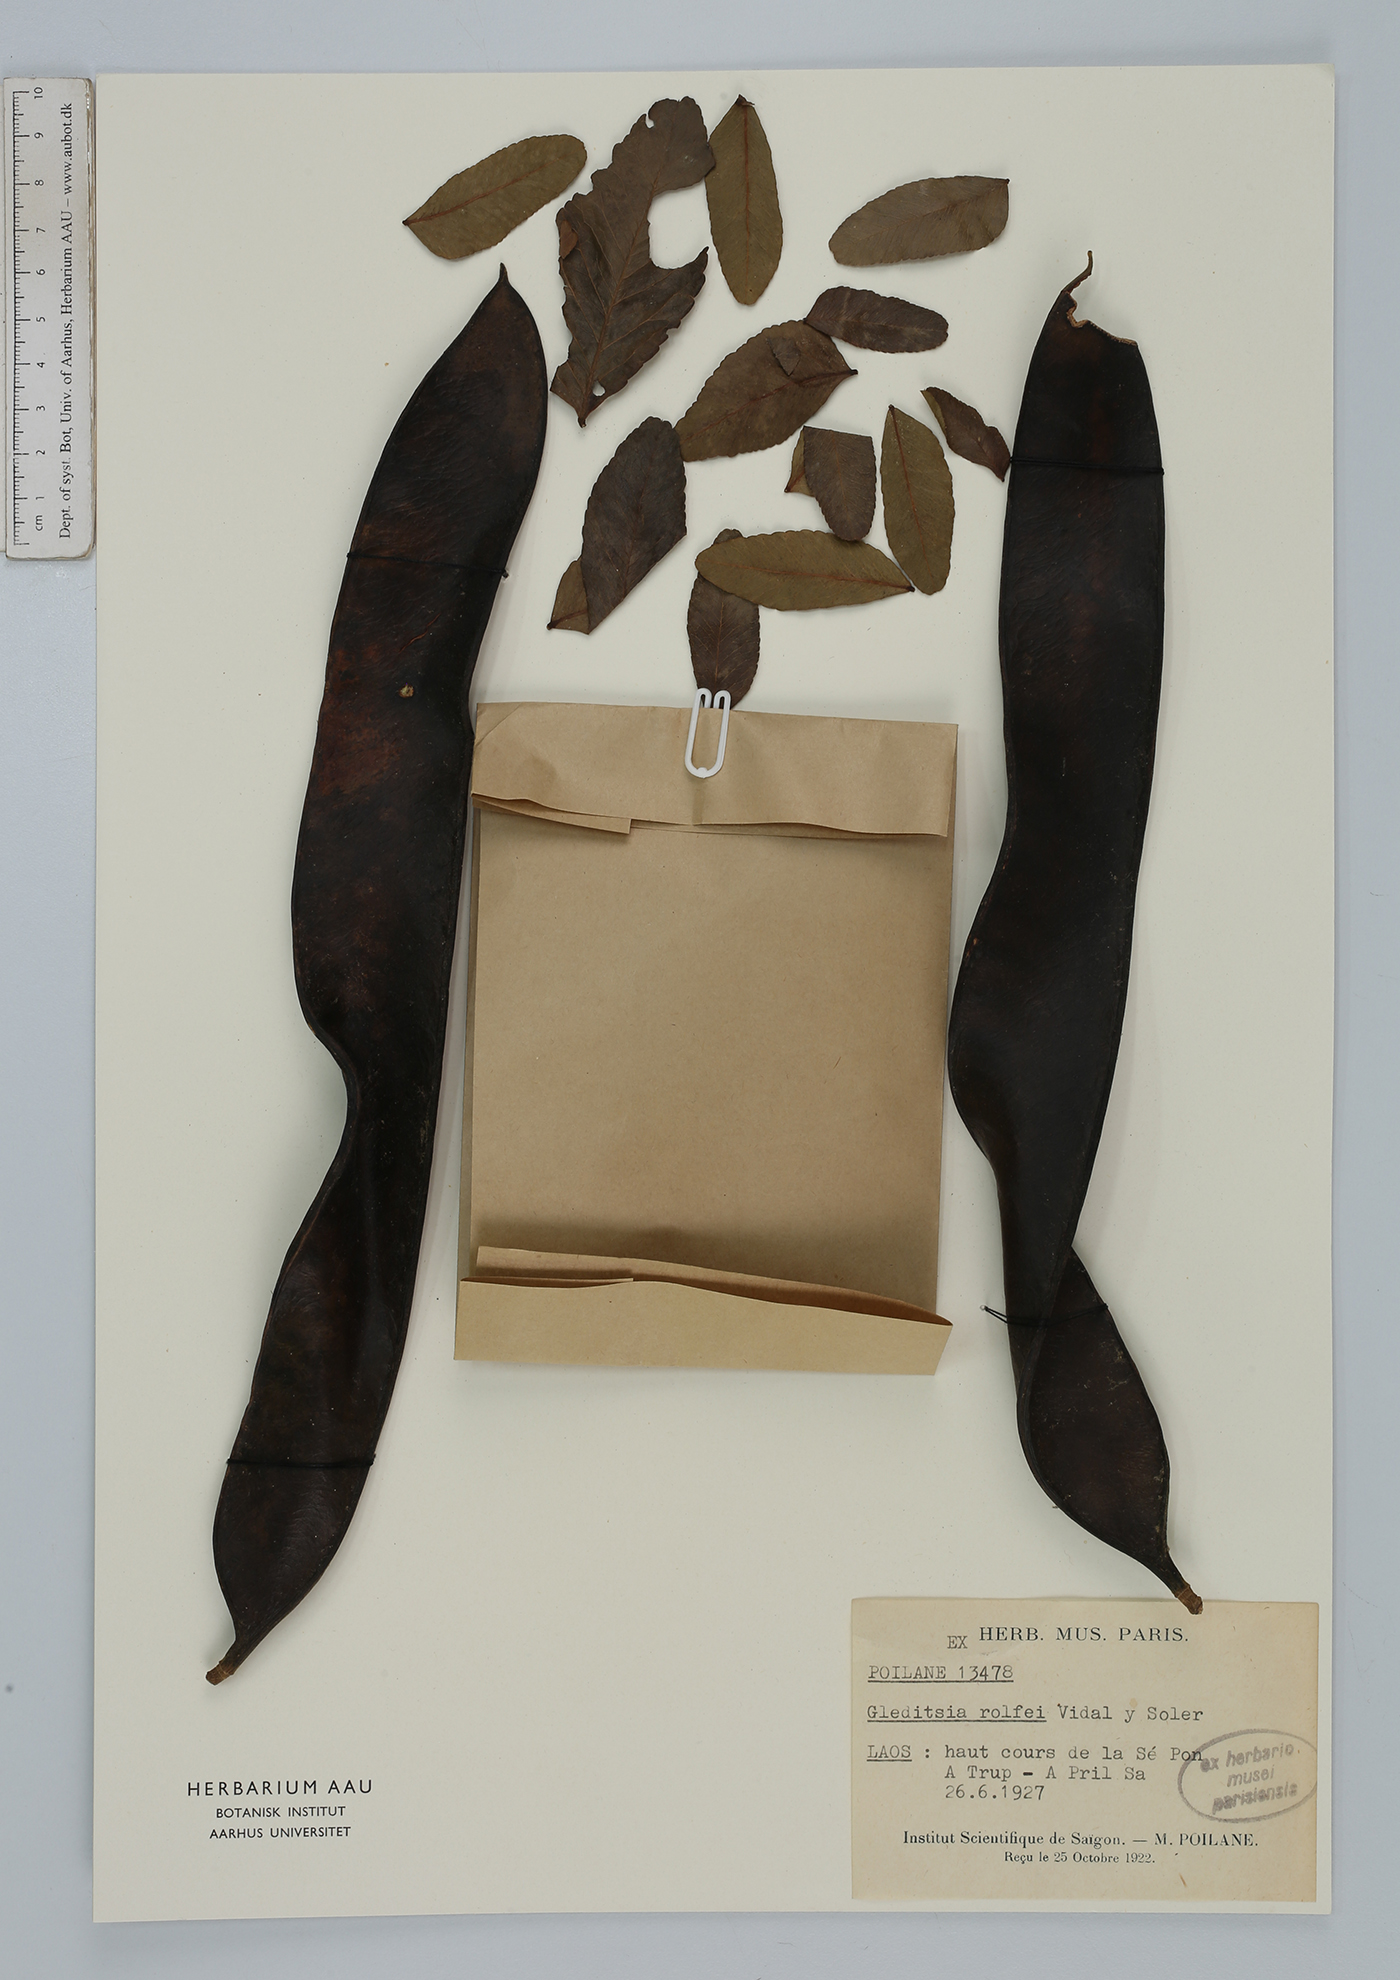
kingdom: Plantae
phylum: Tracheophyta
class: Magnoliopsida
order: Fabales
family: Fabaceae
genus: Gleditsia
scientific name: Gleditsia rolfei
